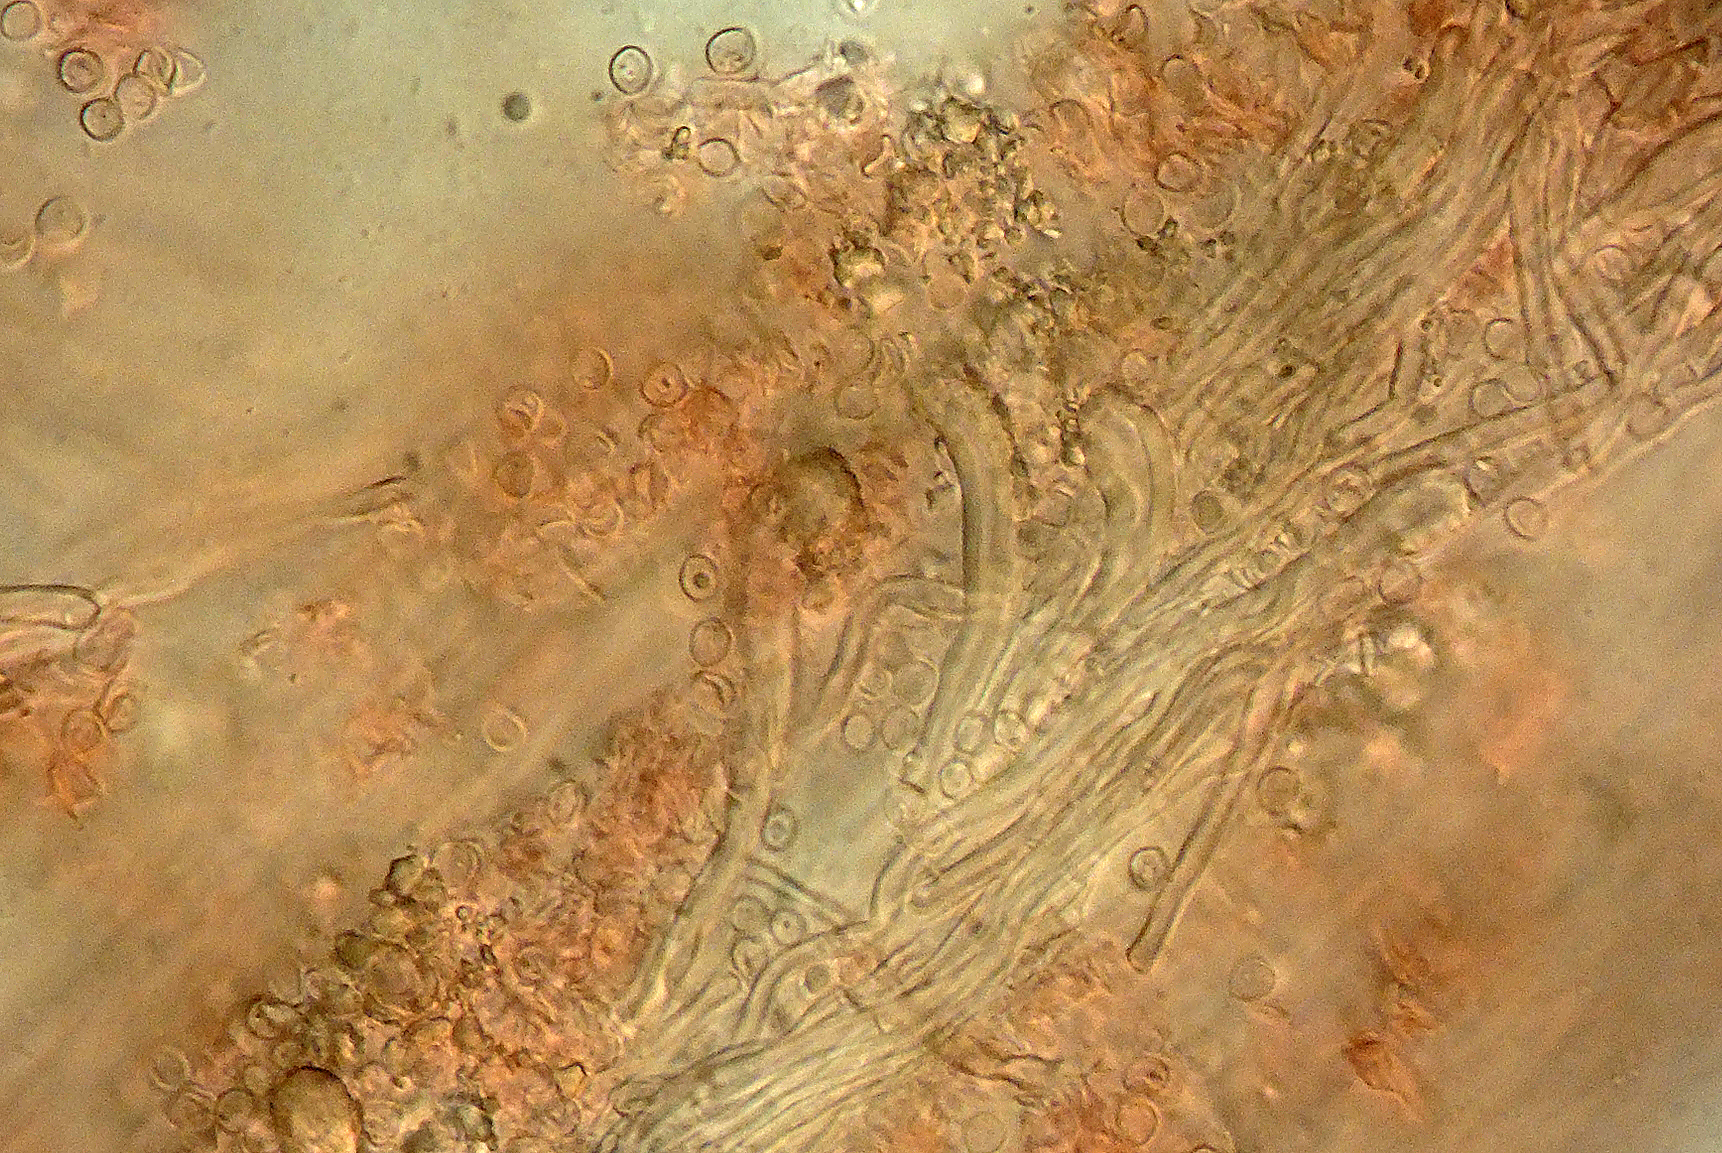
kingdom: Fungi
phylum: Basidiomycota
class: Agaricomycetes
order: Hymenochaetales
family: Oxyporaceae
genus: Oxyporus
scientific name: Oxyporus populinus
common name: sammenvokset trylleporesvamp
